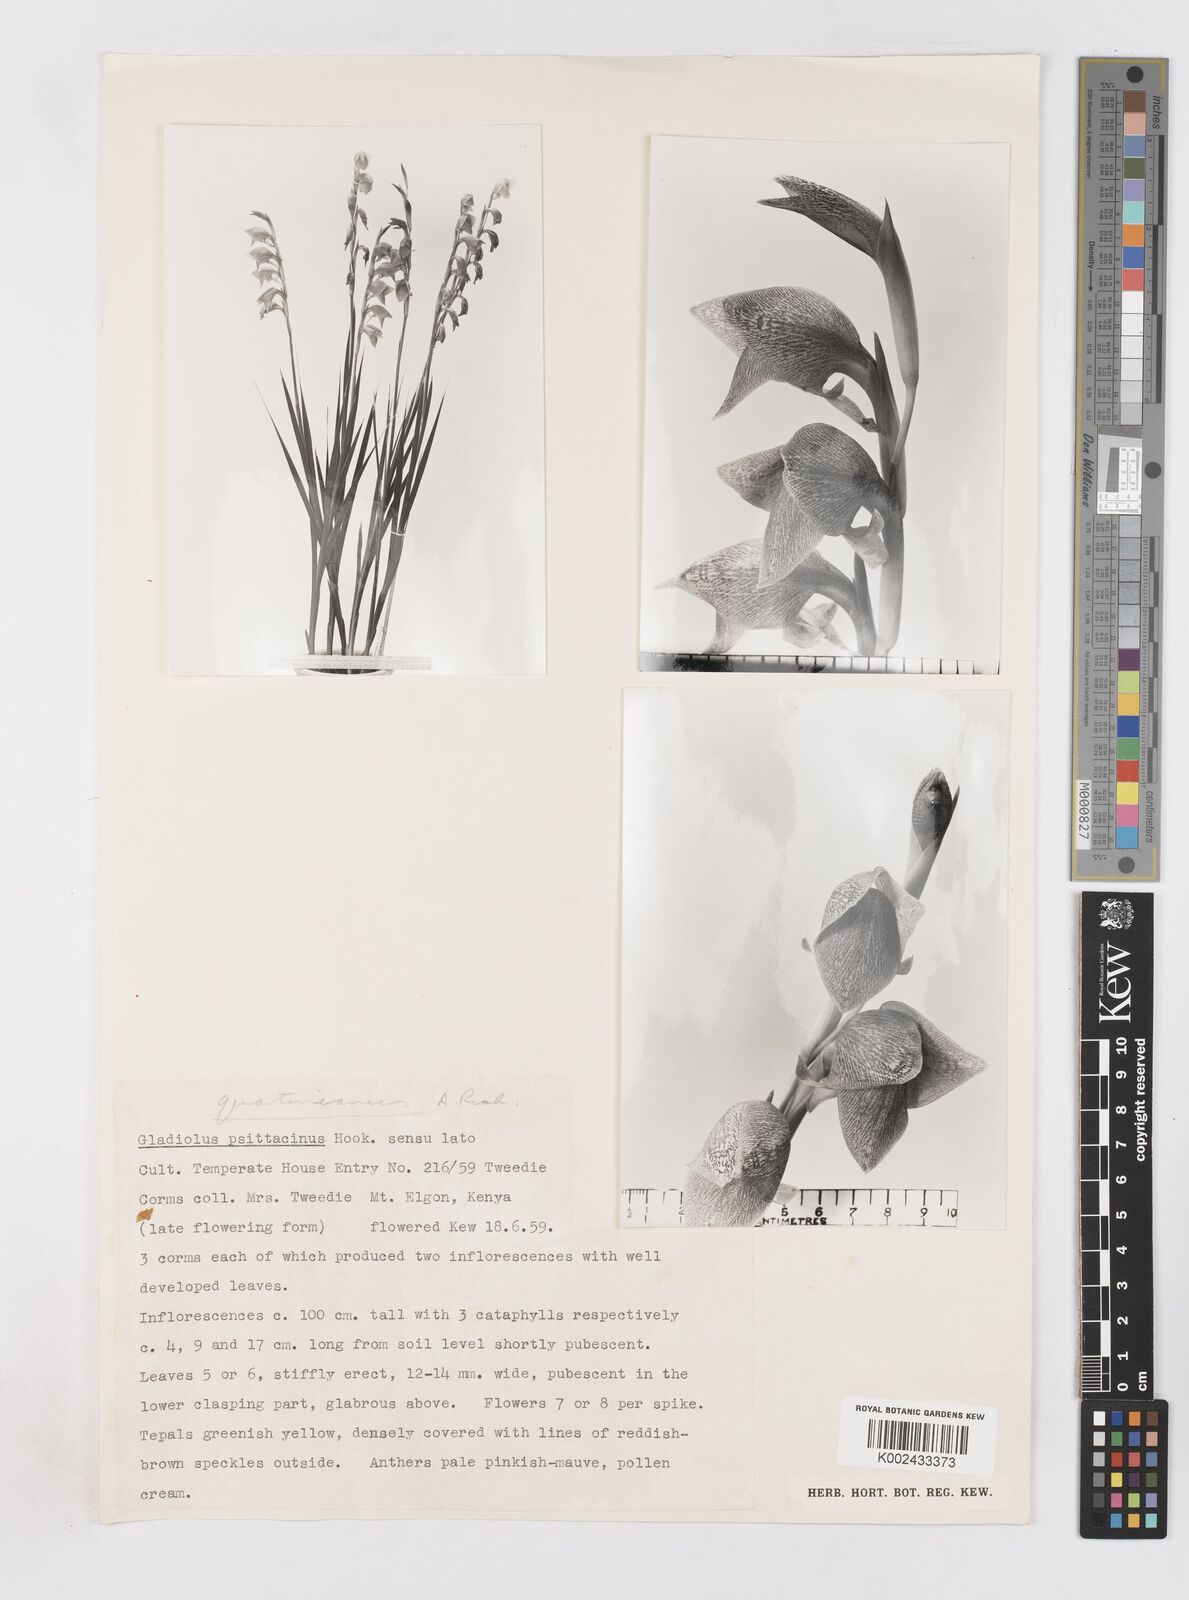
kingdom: Plantae
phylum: Tracheophyta
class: Liliopsida
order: Asparagales
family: Iridaceae
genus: Gladiolus
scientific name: Gladiolus dalenii
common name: Cornflag
